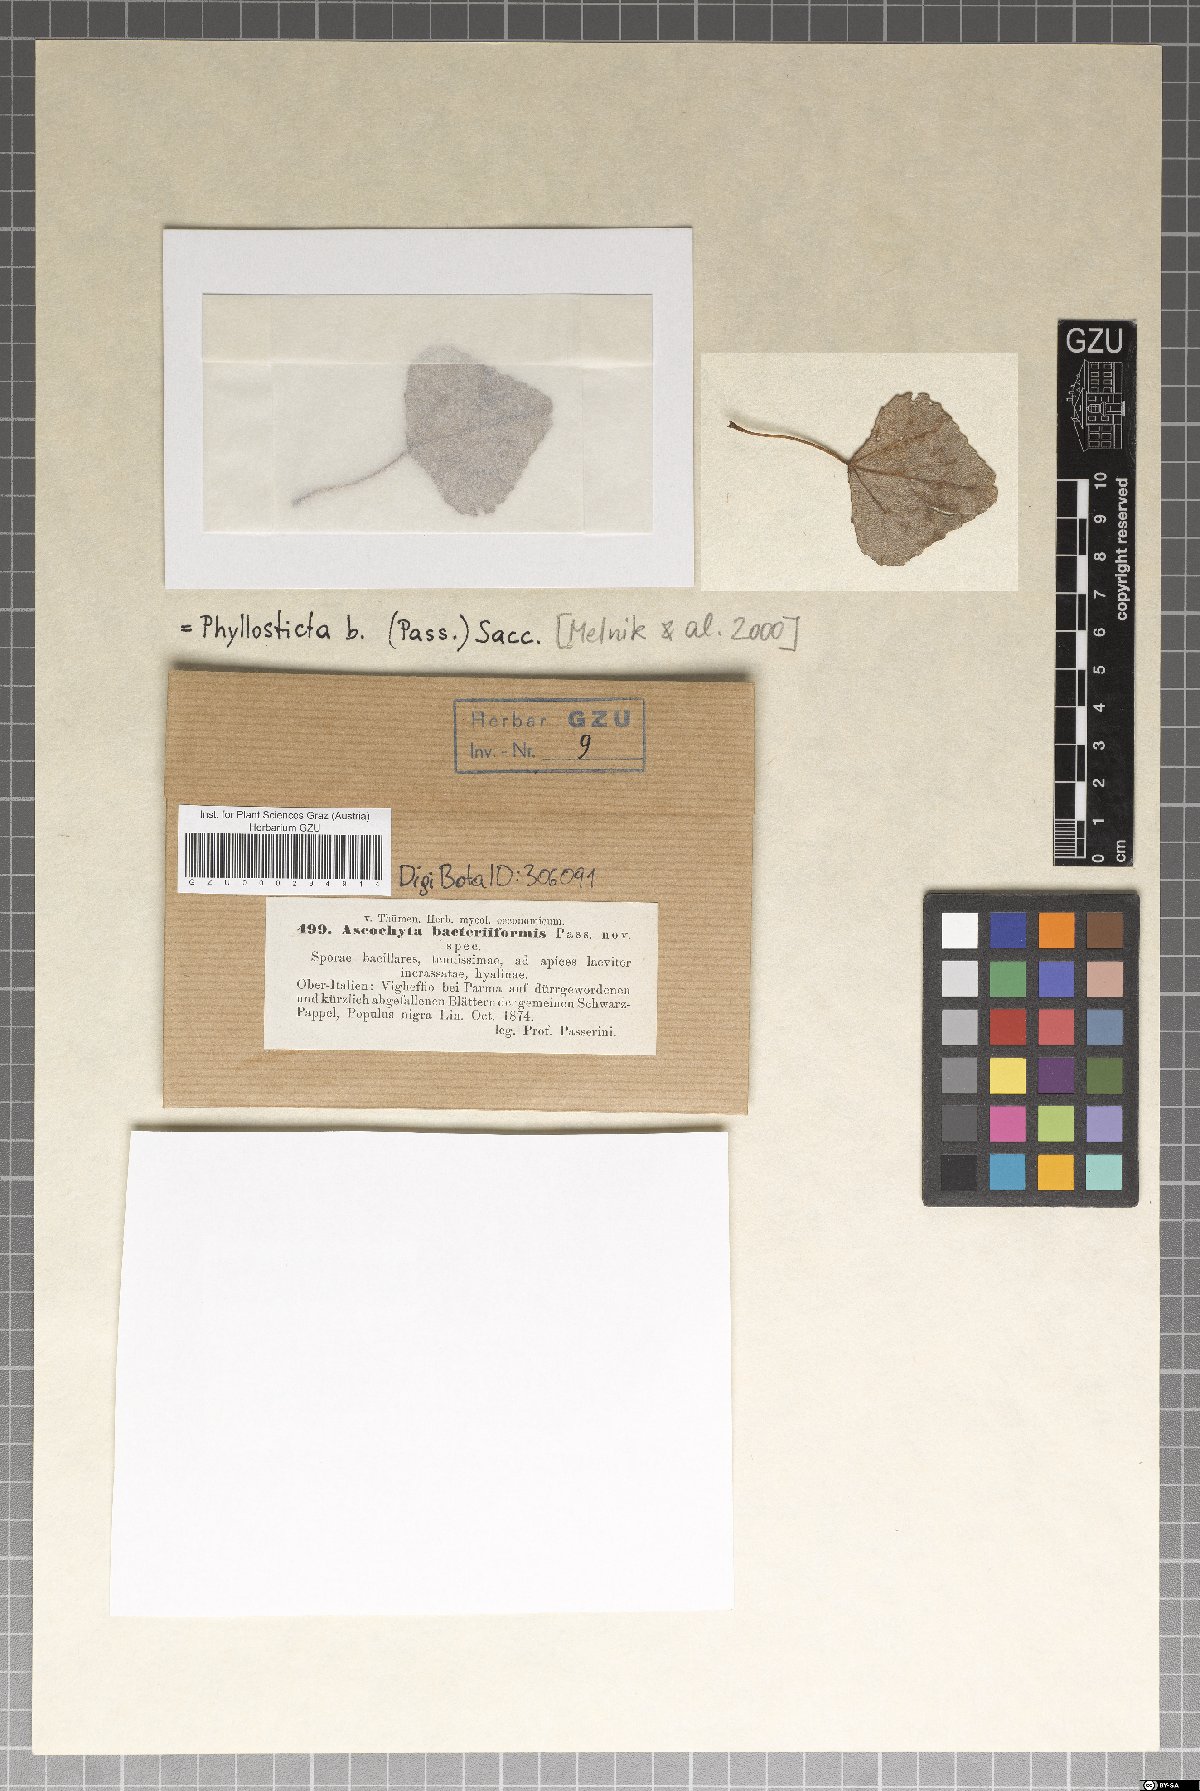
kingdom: Fungi
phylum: Ascomycota
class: Dothideomycetes
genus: Asteromella
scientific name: Asteromella bacteriiformis
